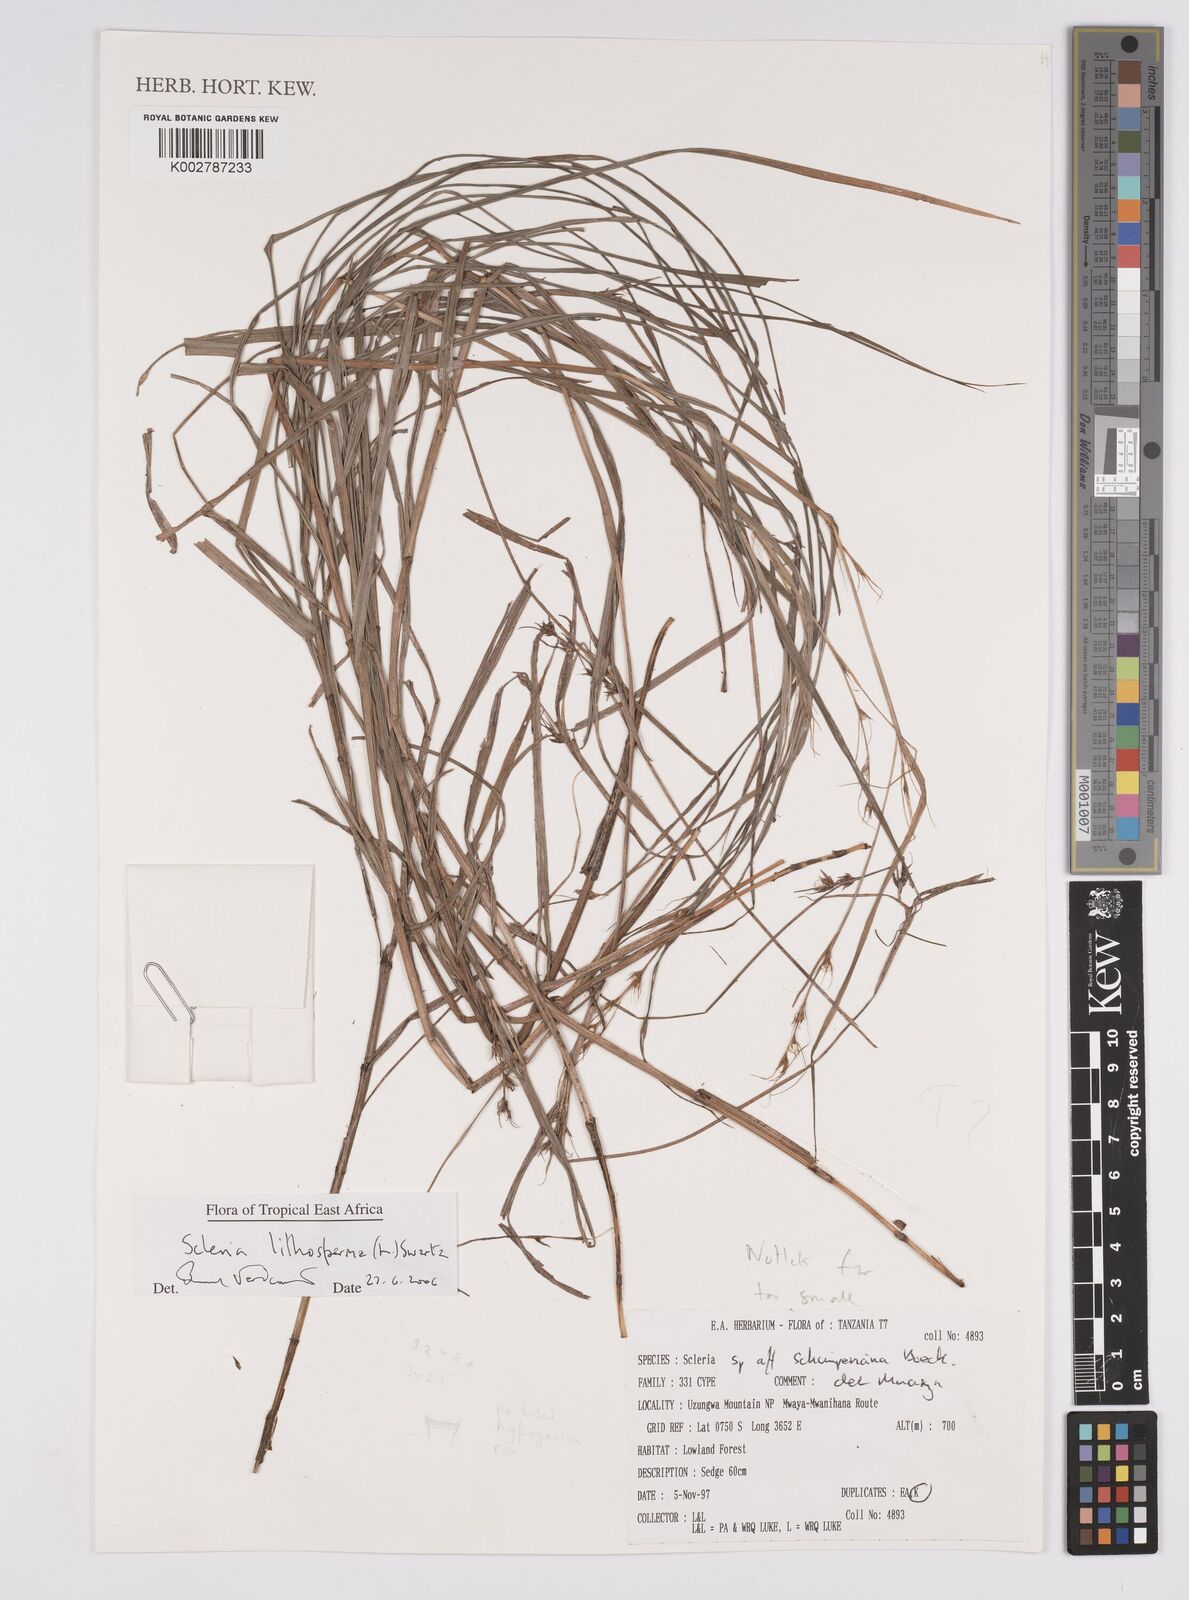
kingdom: Plantae
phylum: Tracheophyta
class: Liliopsida
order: Poales
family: Cyperaceae
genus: Scleria
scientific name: Scleria lithosperma
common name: Florida keys nut-rush
